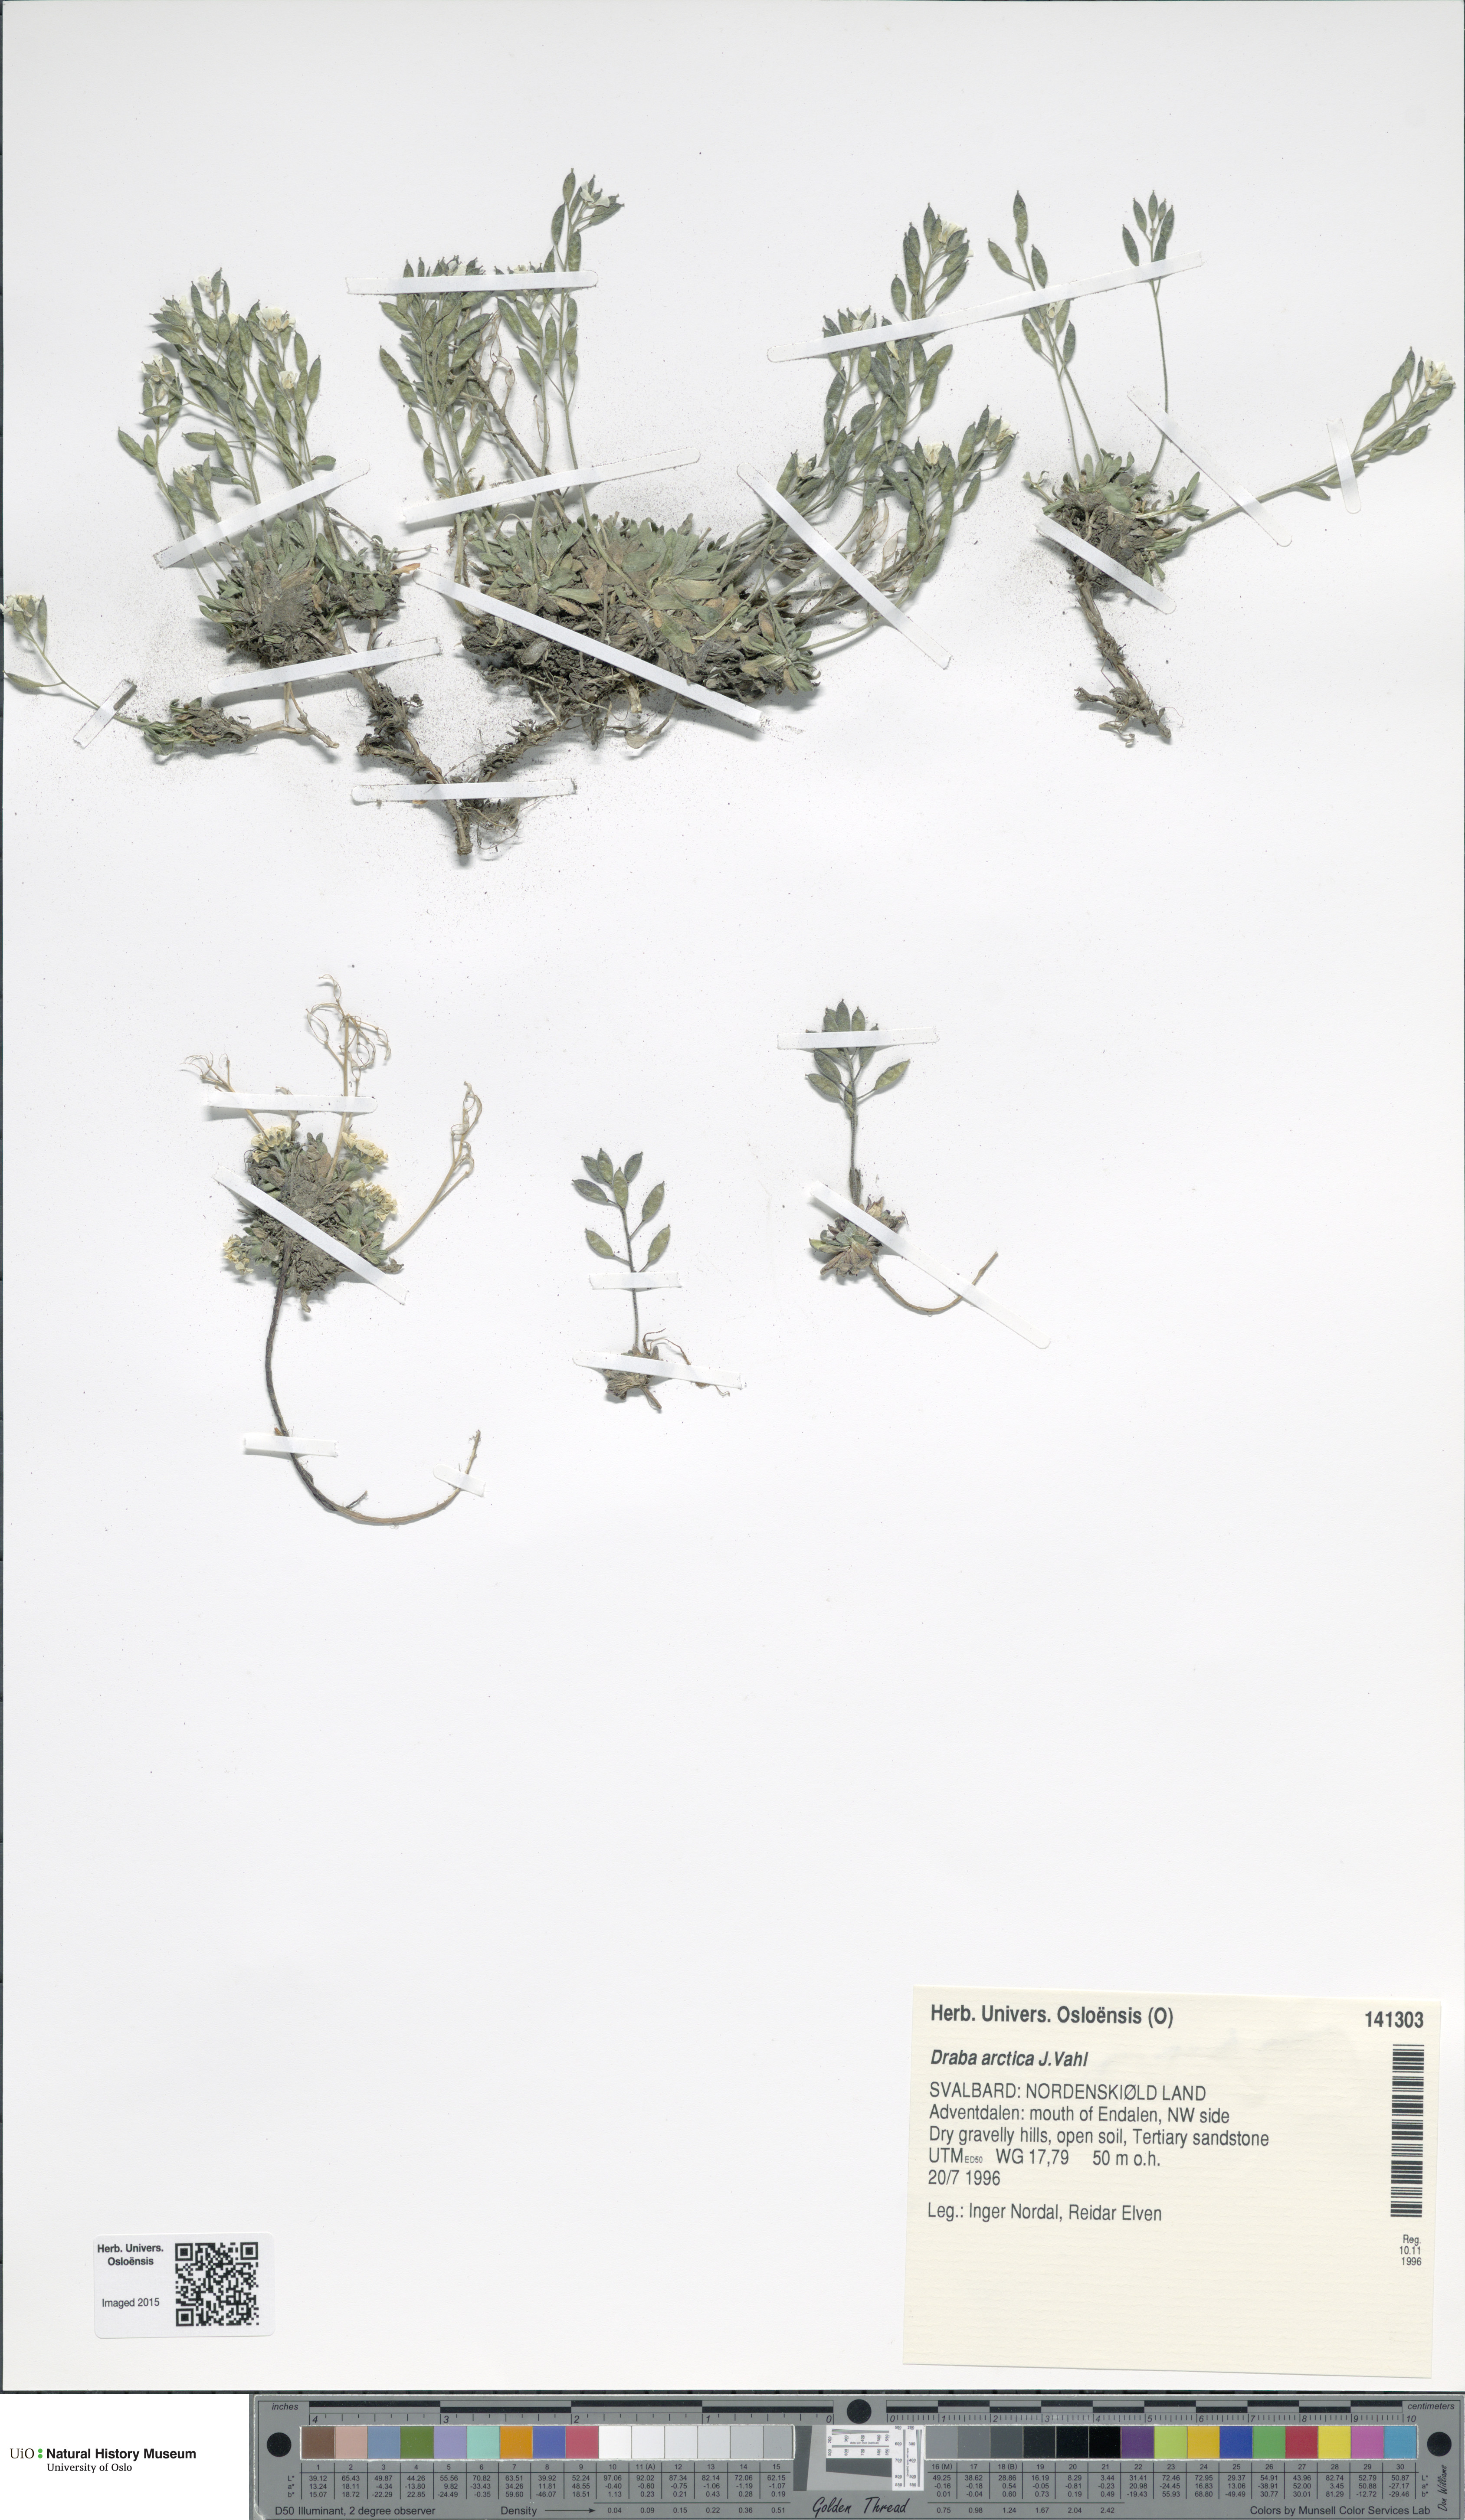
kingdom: Plantae
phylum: Tracheophyta
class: Magnoliopsida
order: Brassicales
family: Brassicaceae
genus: Draba
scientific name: Draba arctica
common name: Arctic draba
